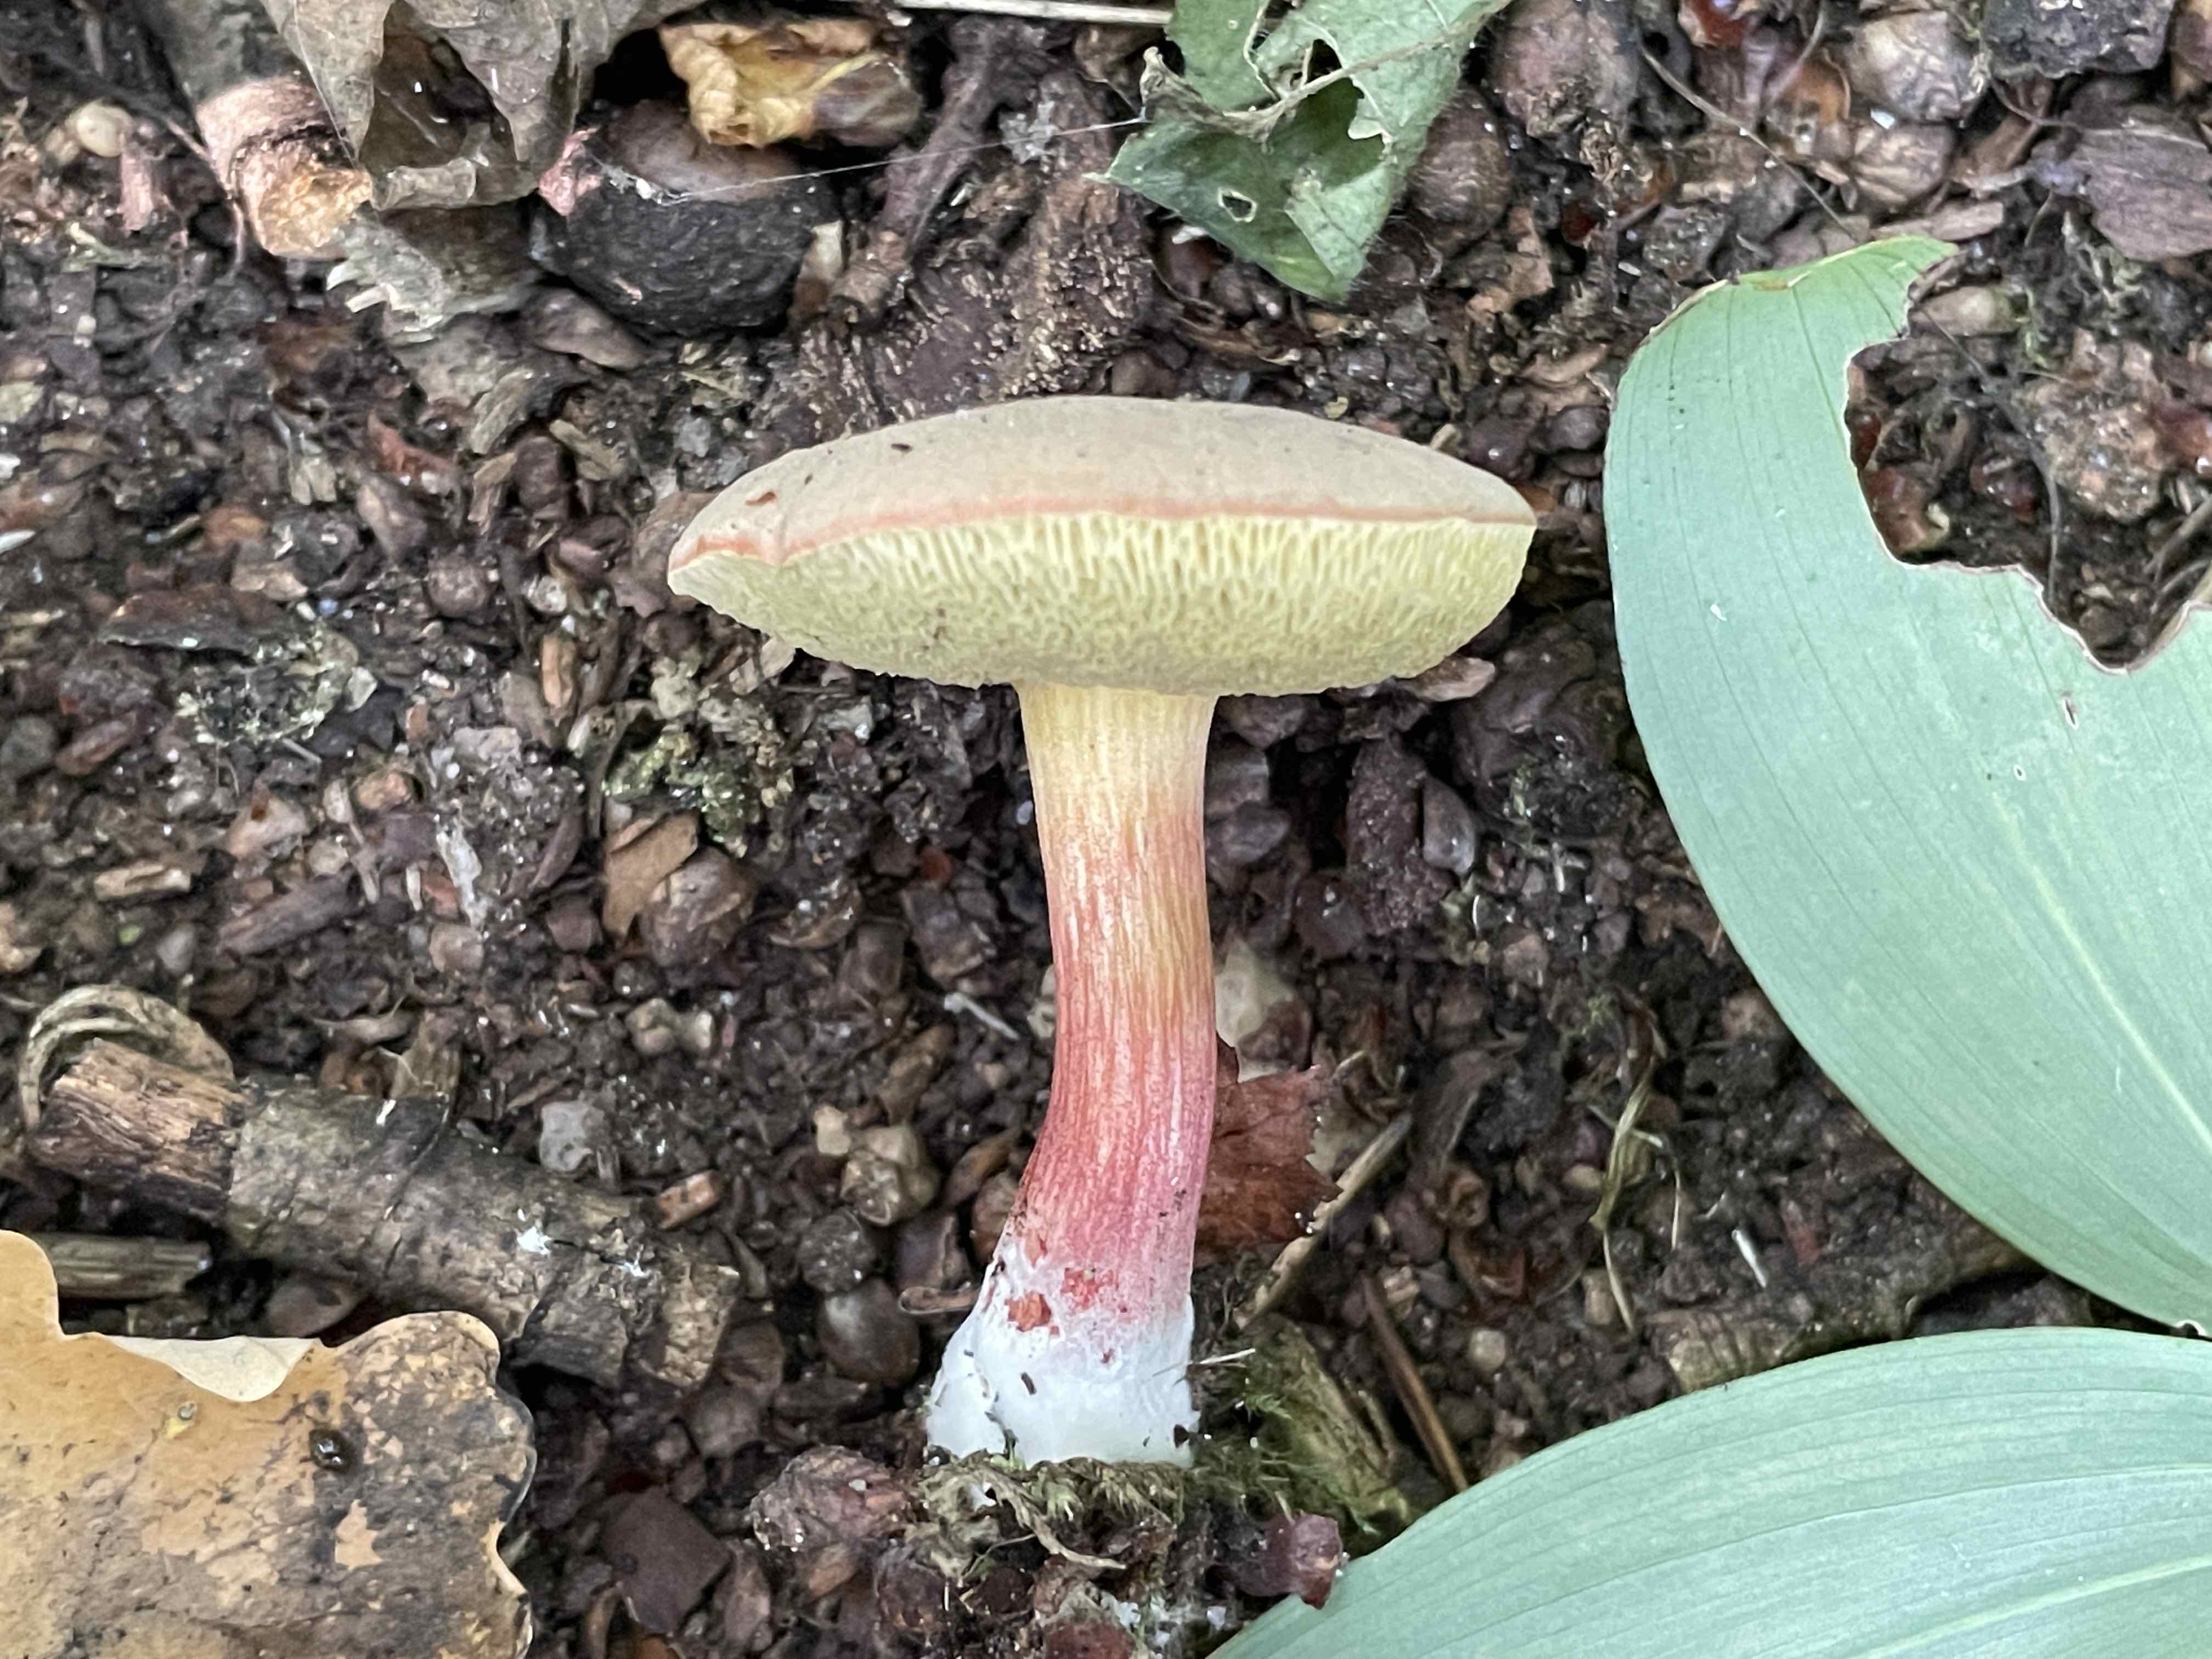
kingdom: Fungi
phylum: Basidiomycota
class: Agaricomycetes
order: Boletales
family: Boletaceae
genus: Xerocomellus
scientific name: Xerocomellus pruinatus
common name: dugget rørhat
